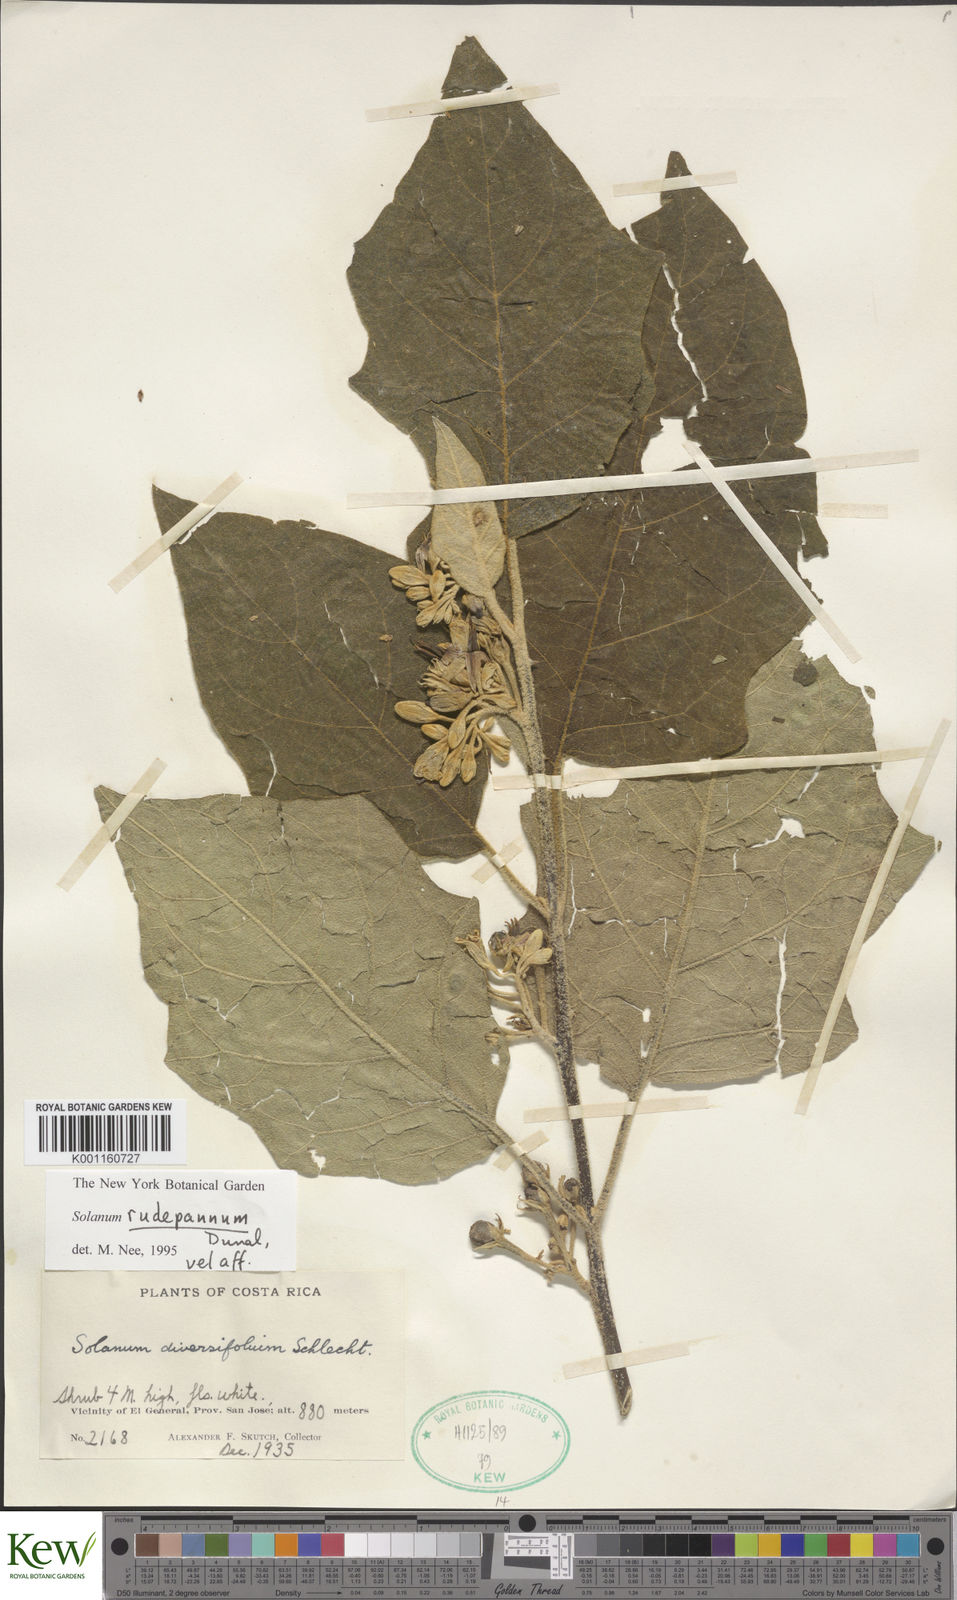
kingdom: Plantae
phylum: Tracheophyta
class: Magnoliopsida
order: Solanales
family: Solanaceae
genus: Solanum
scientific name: Solanum rude-pannum
